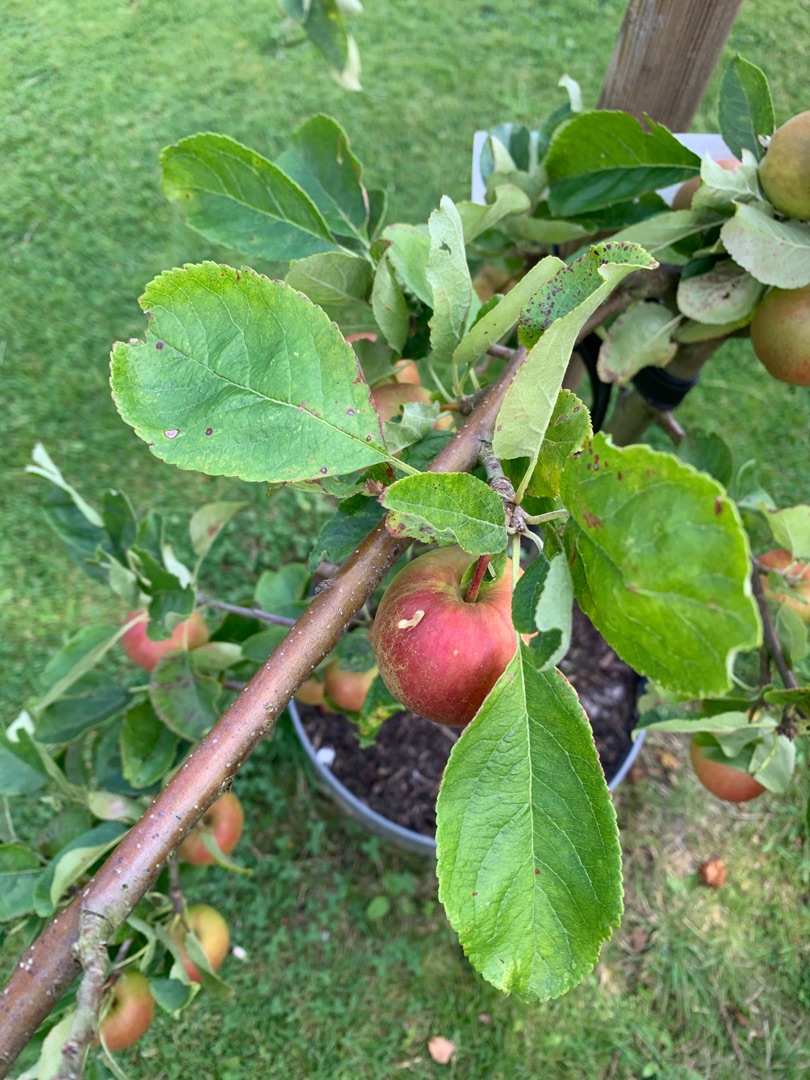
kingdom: Plantae
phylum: Tracheophyta
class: Magnoliopsida
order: Rosales
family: Rosaceae
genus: Malus
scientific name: Malus domestica
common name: Sød-æble
